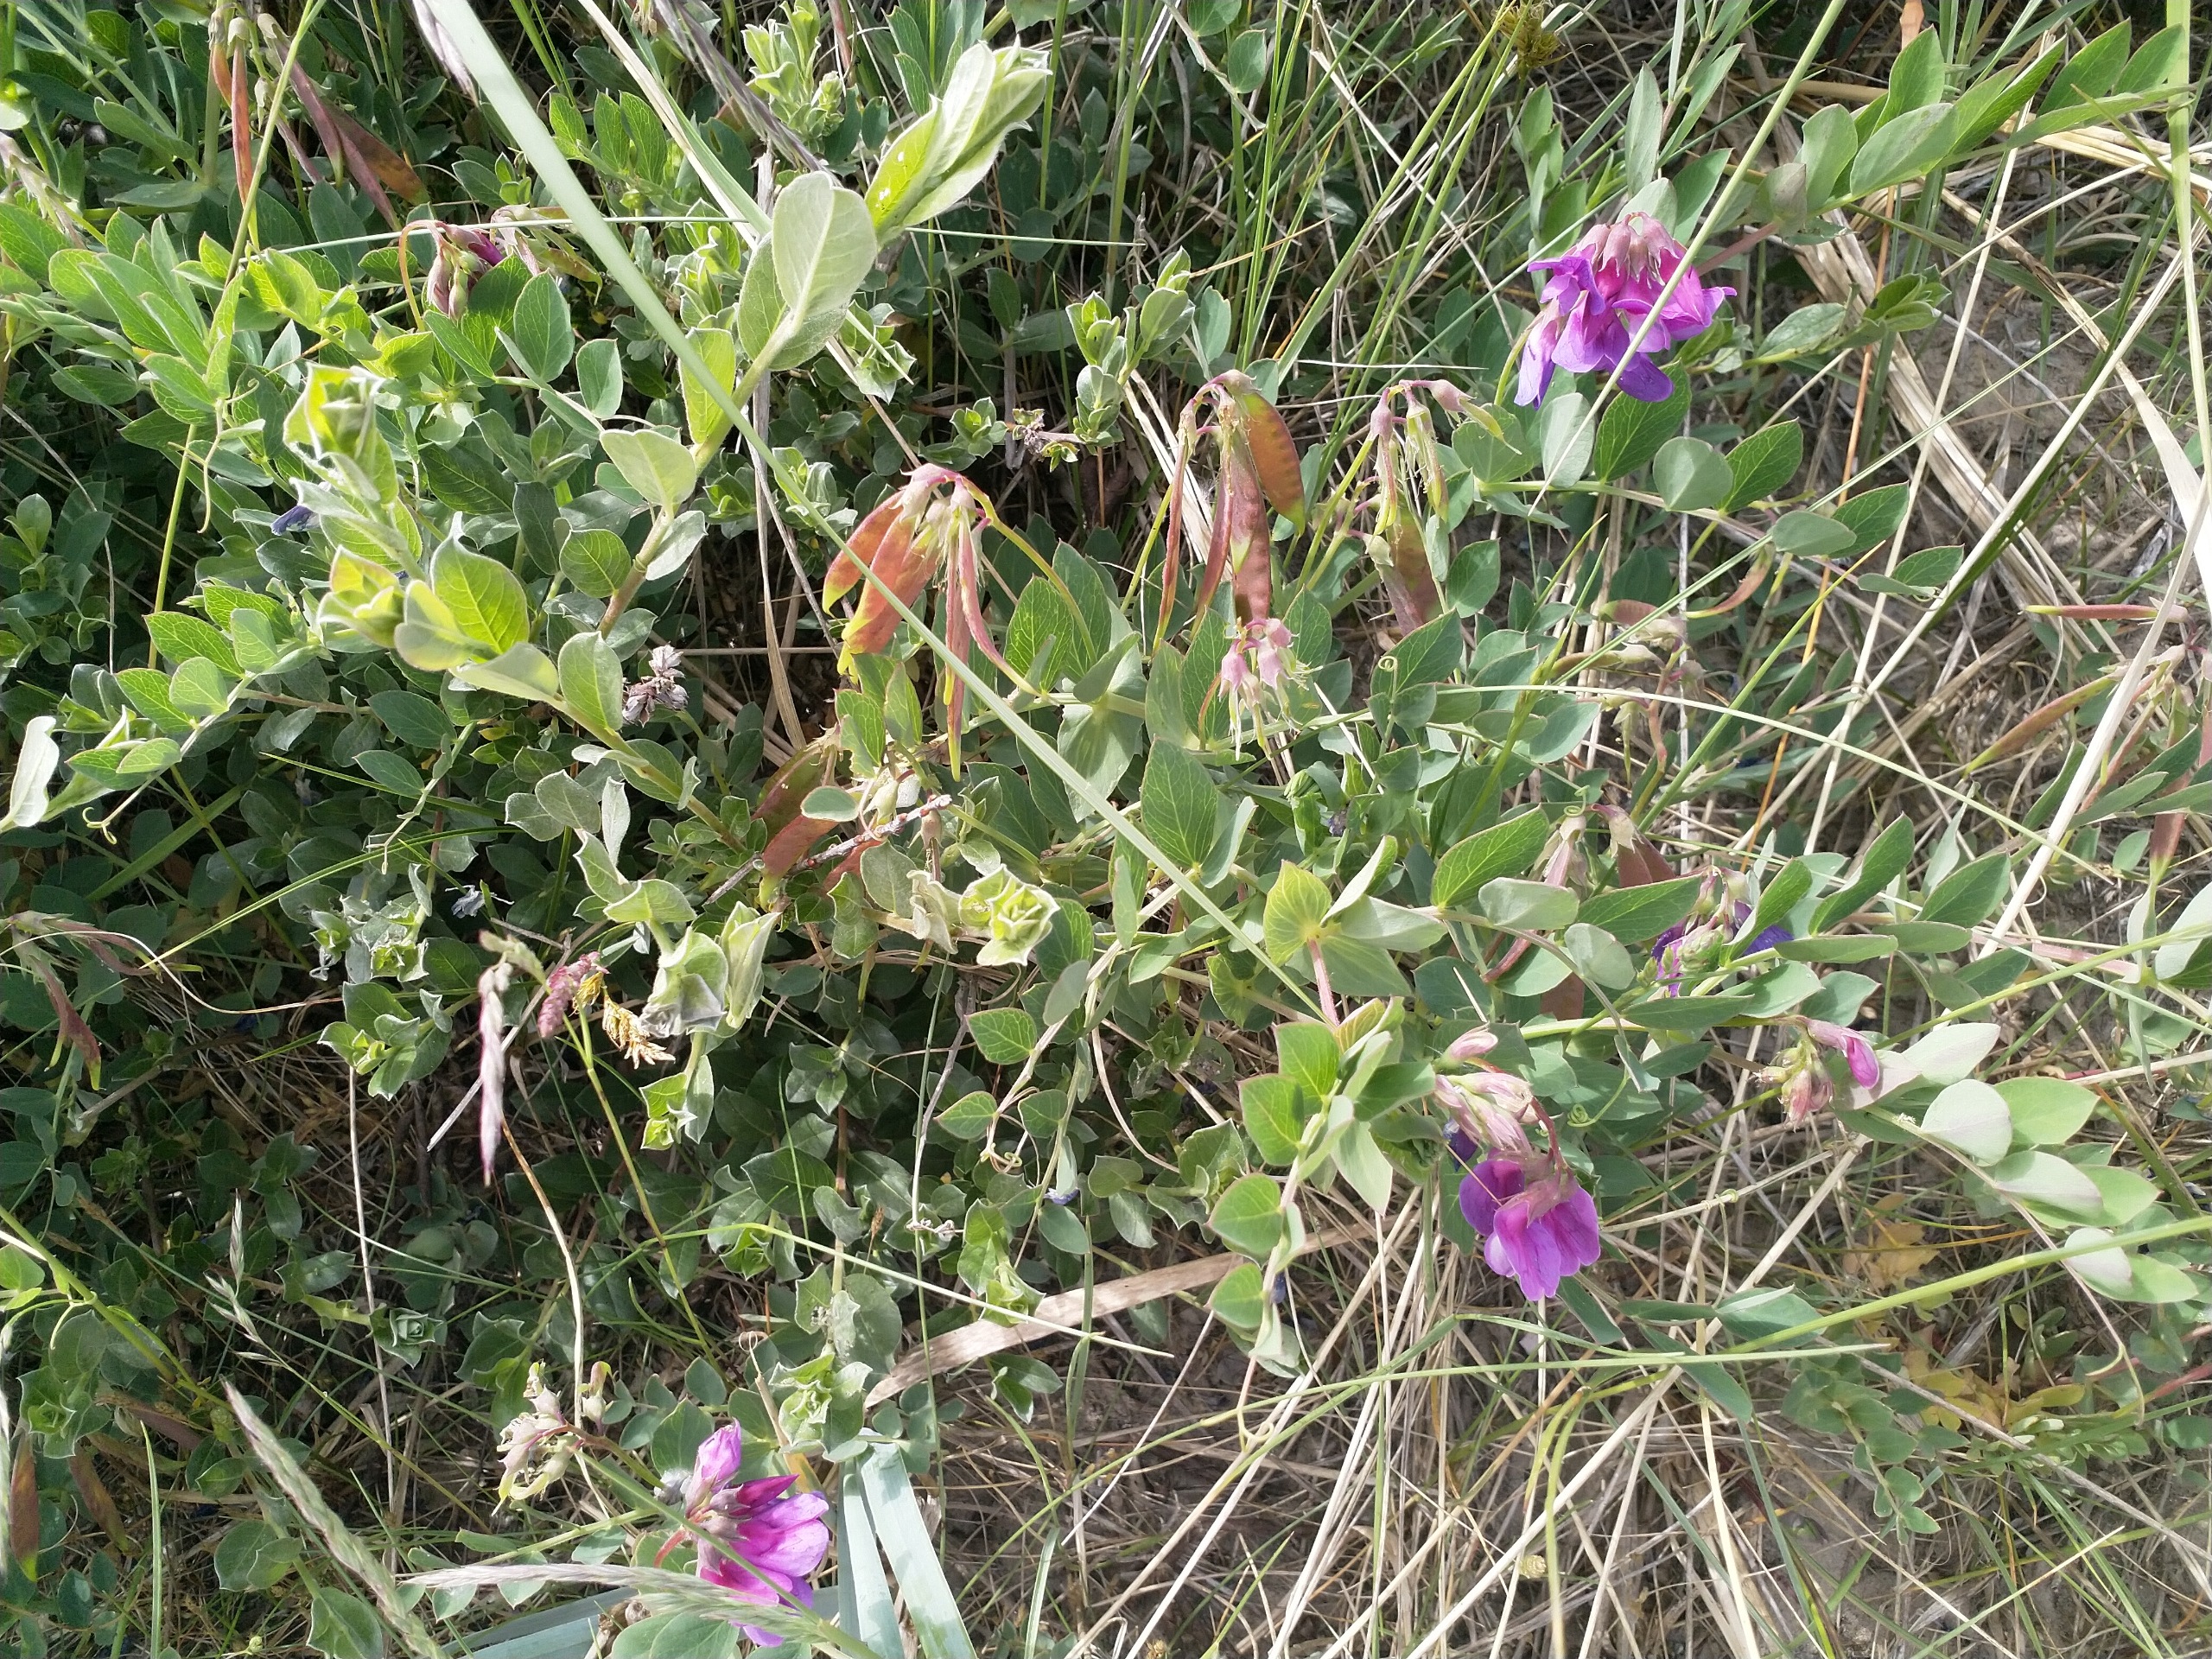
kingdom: Plantae
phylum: Tracheophyta
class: Magnoliopsida
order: Fabales
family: Fabaceae
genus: Lathyrus
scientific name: Lathyrus japonicus
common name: Strand-fladbælg
